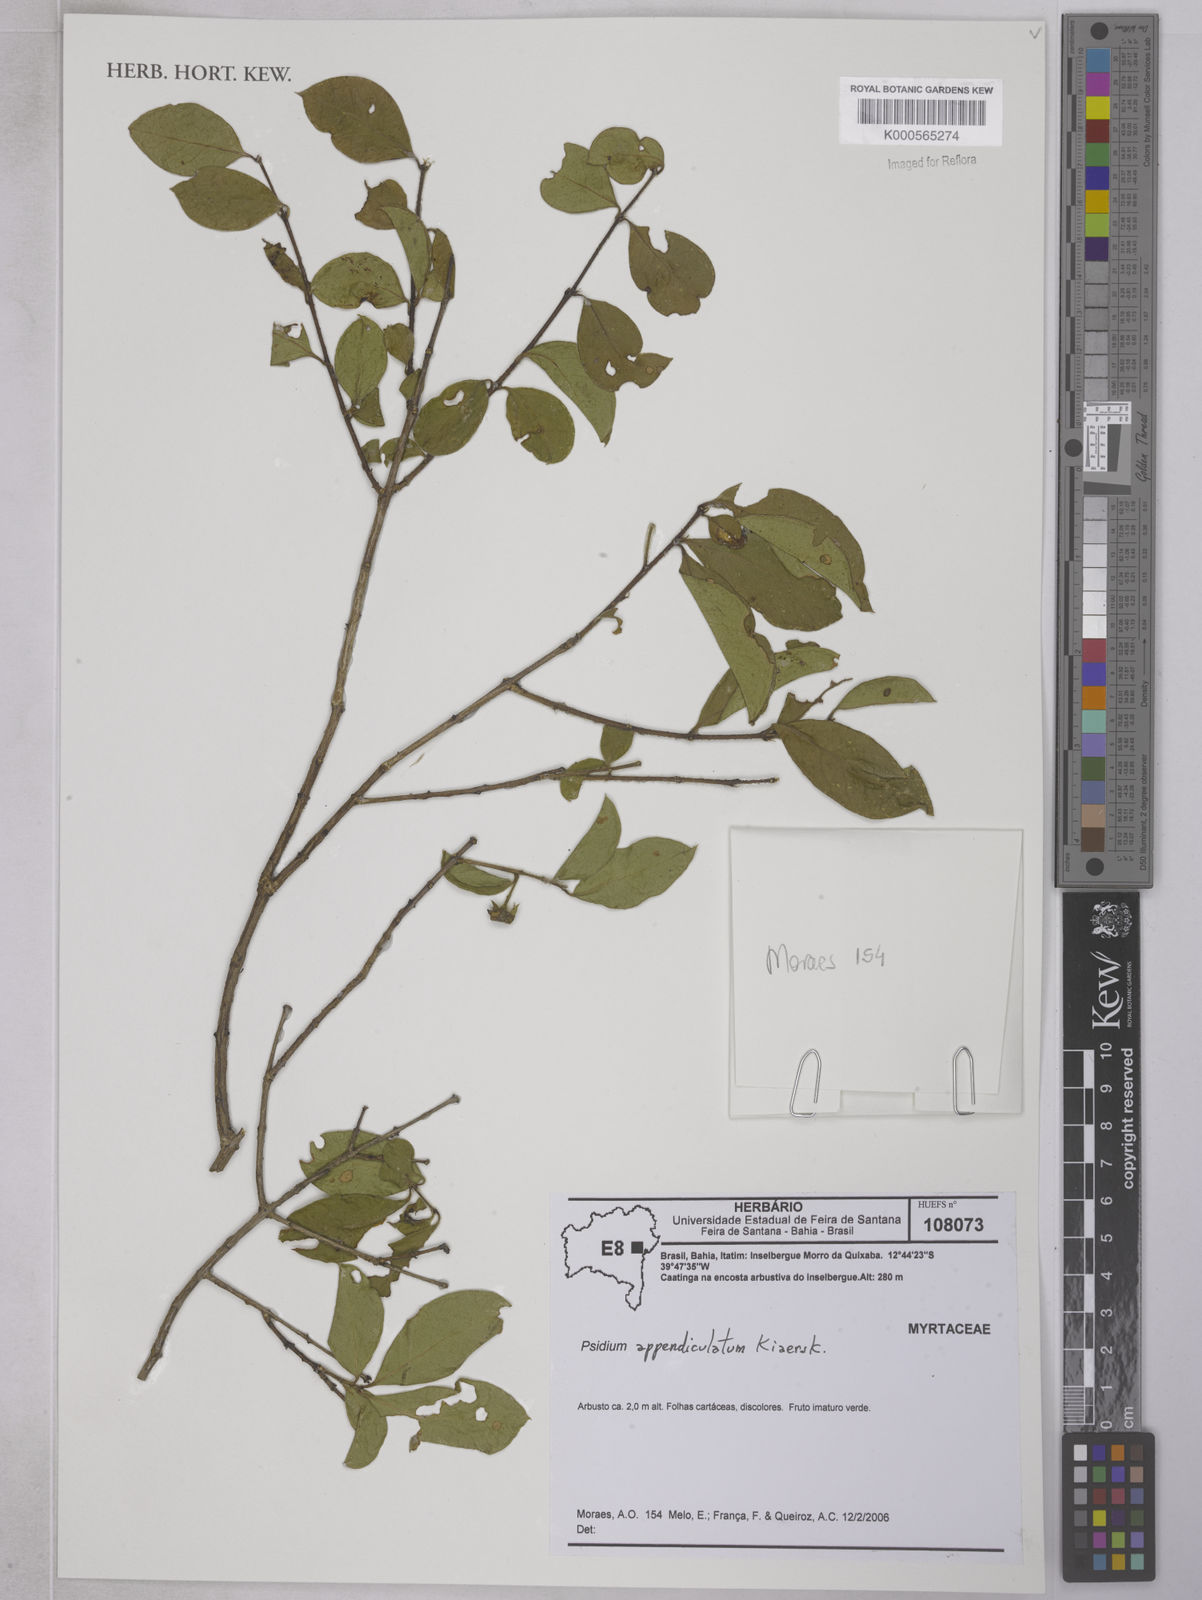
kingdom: Plantae
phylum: Tracheophyta
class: Magnoliopsida
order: Myrtales
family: Myrtaceae
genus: Psidium
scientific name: Psidium appendiculatum
